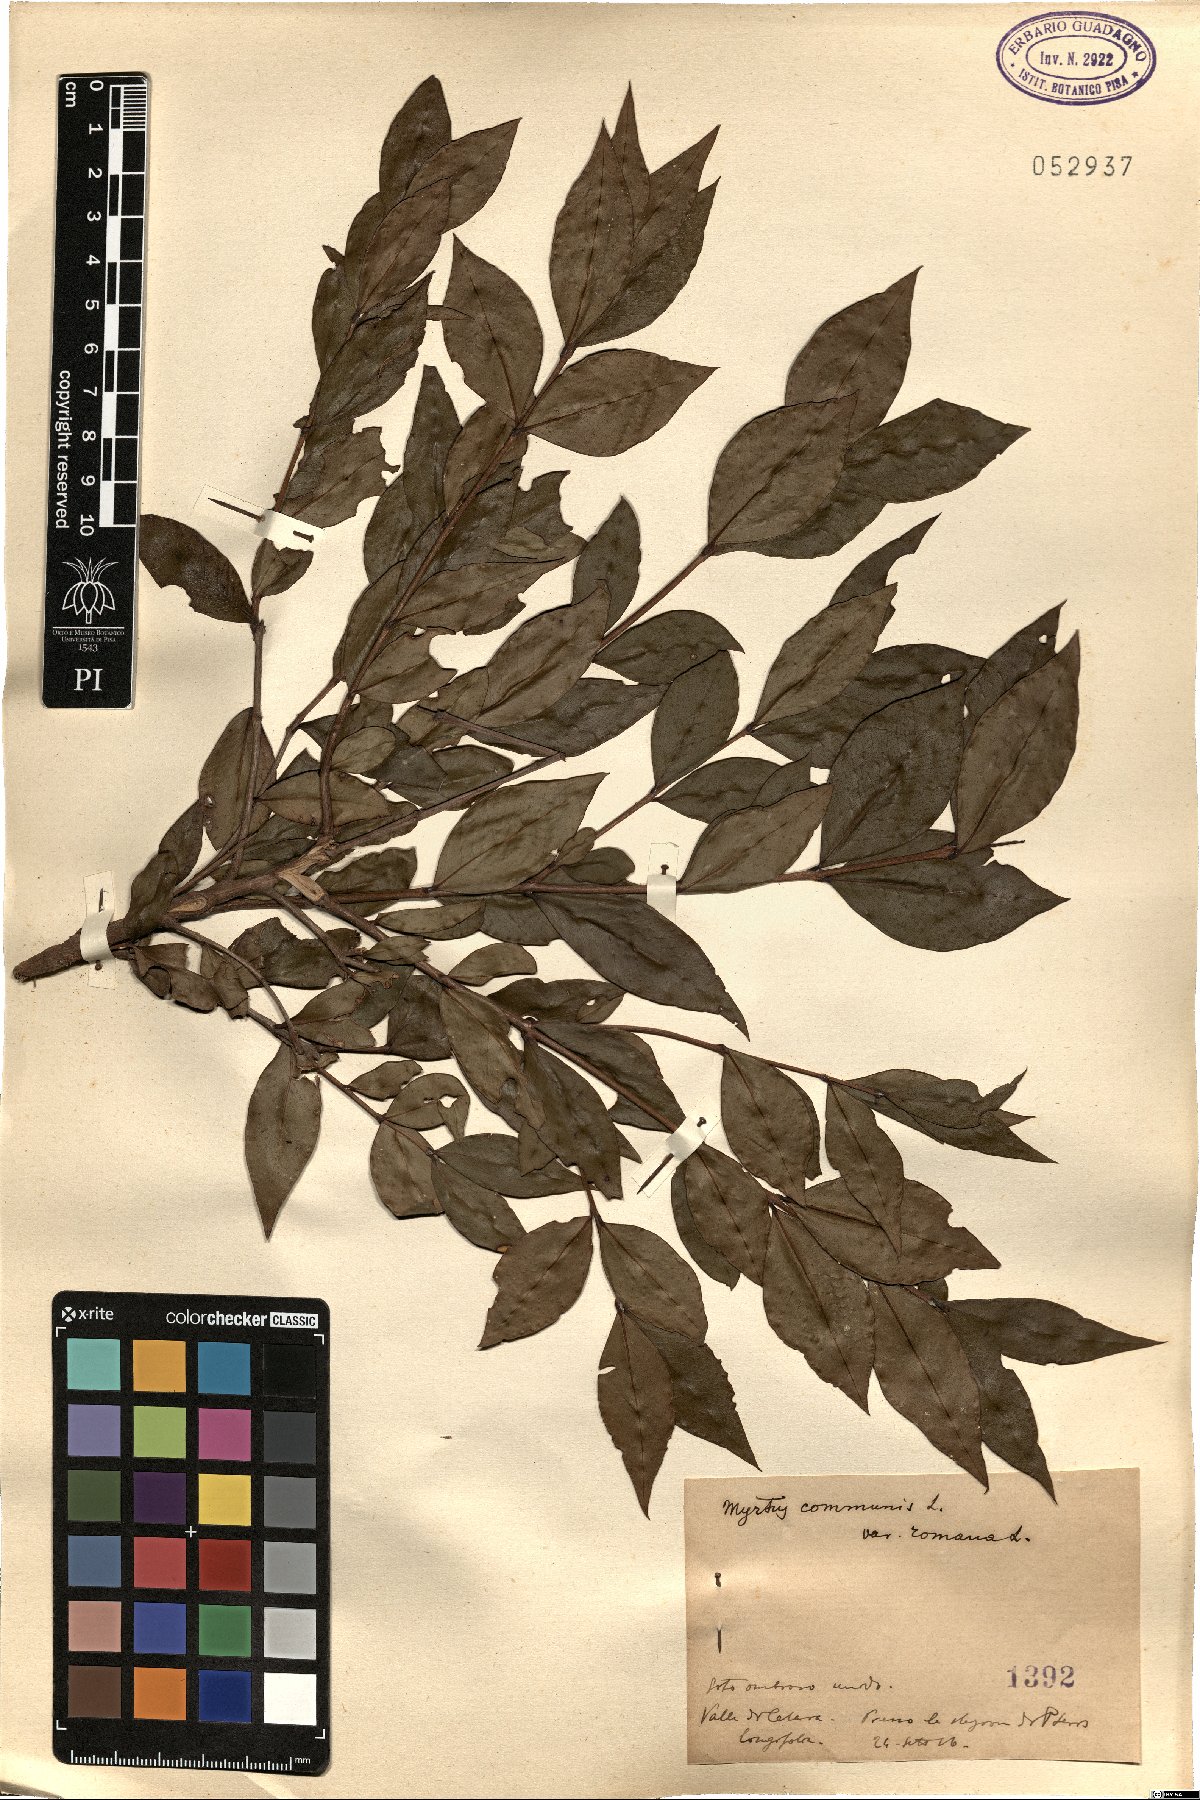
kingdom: Plantae
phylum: Tracheophyta
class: Magnoliopsida
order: Myrtales
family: Myrtaceae
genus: Myrtus
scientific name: Myrtus communis
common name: Myrtle
